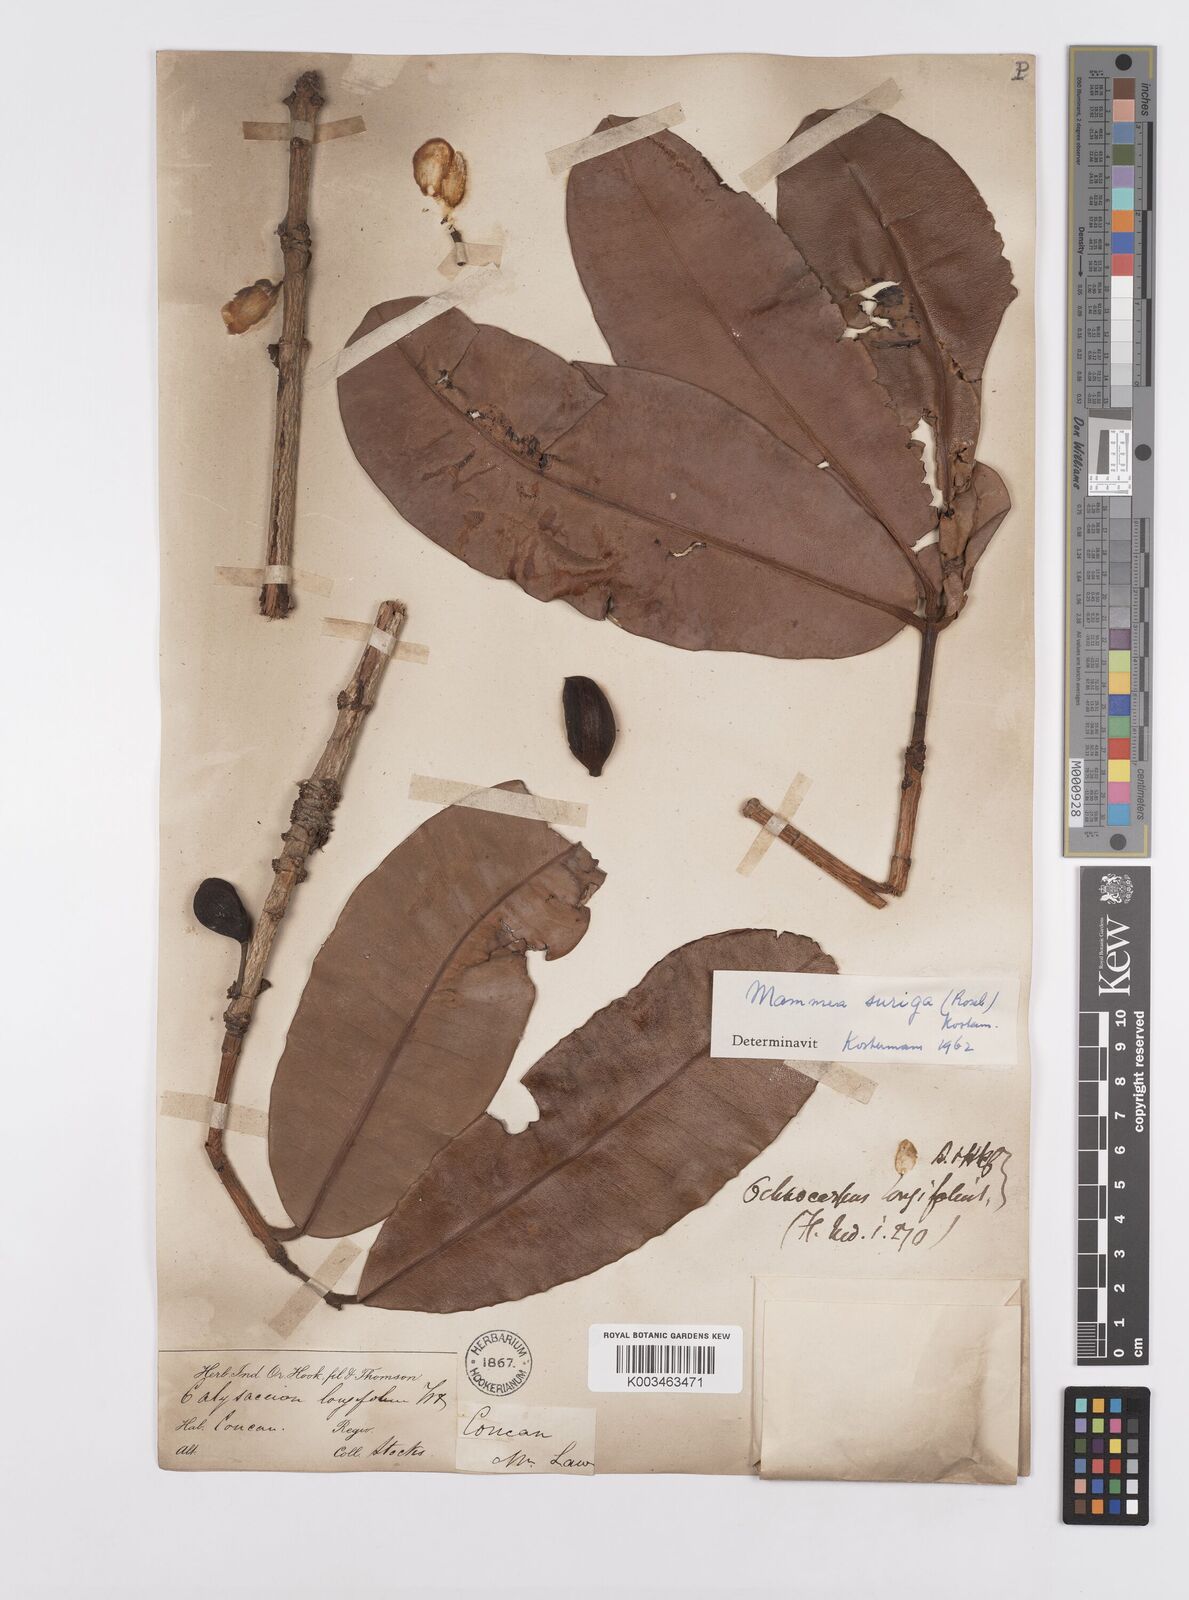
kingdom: Plantae
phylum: Tracheophyta
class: Magnoliopsida
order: Malpighiales
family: Calophyllaceae
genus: Mammea
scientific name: Mammea suriga
